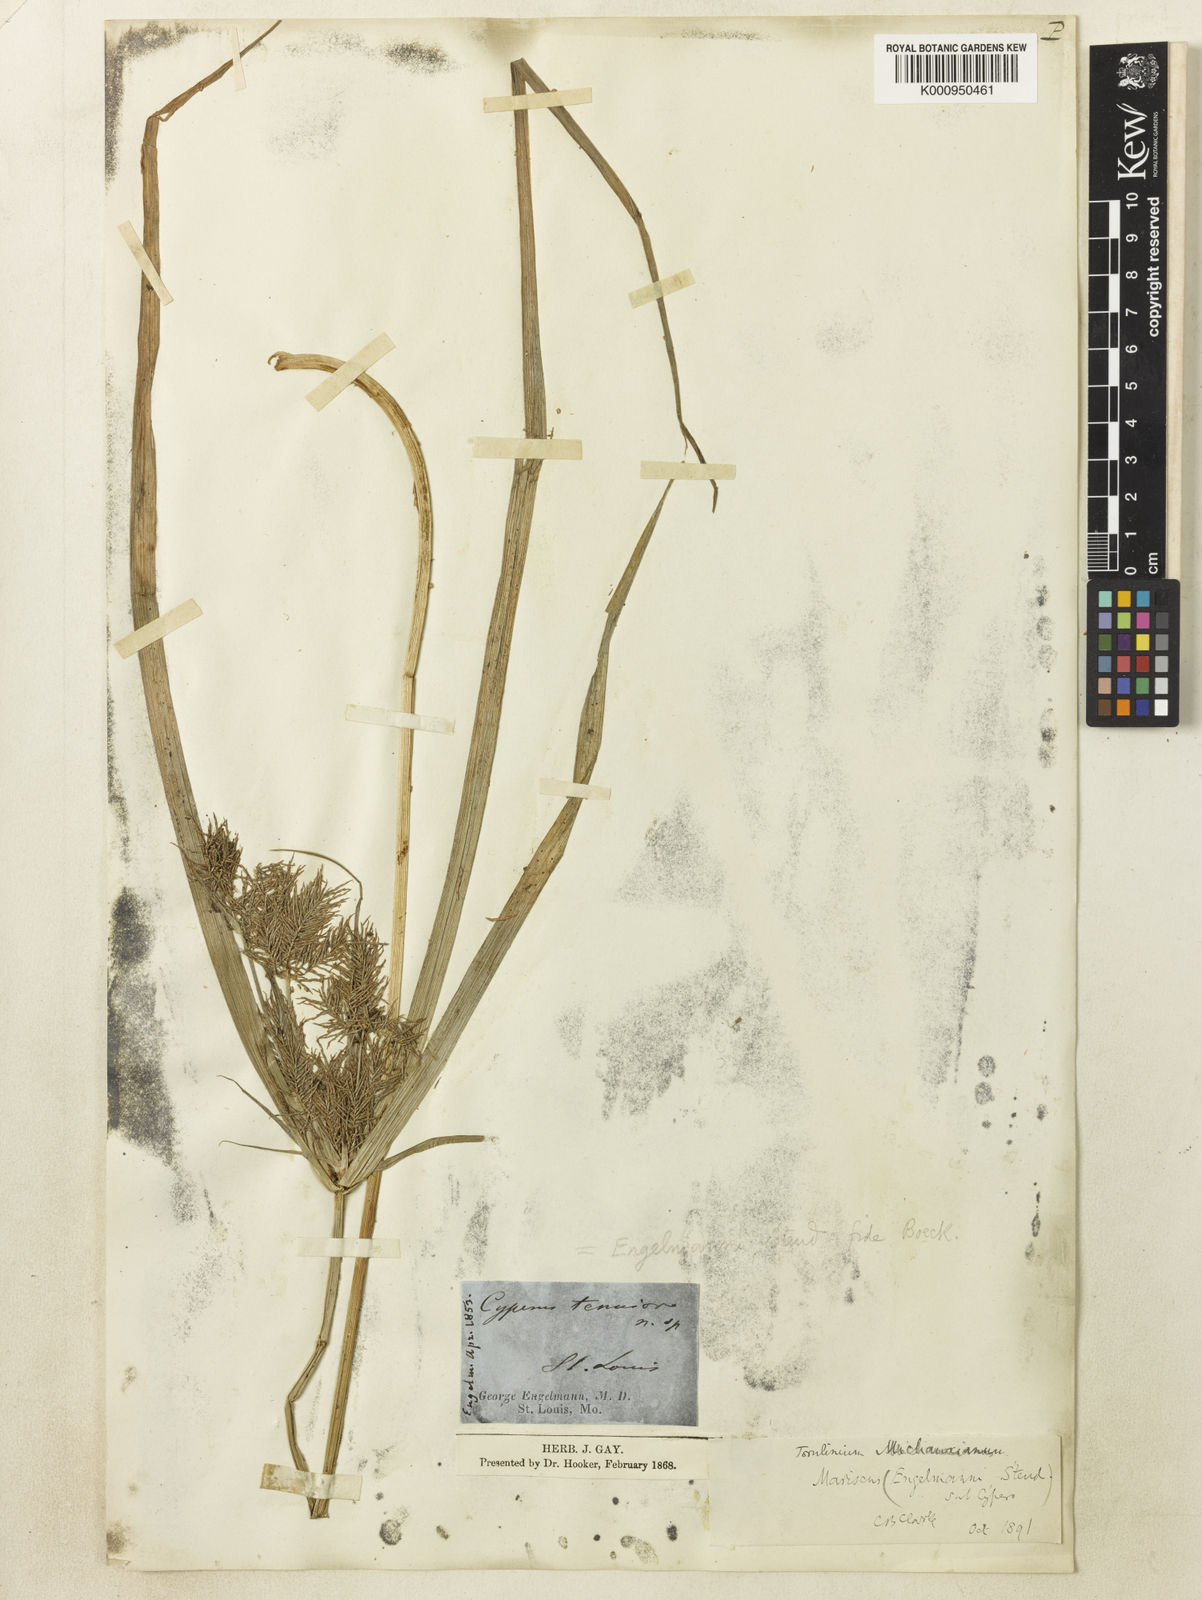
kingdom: Plantae
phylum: Tracheophyta
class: Liliopsida
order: Poales
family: Cyperaceae
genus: Cyperus
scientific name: Cyperus odoratus
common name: Fragrant flatsedge
